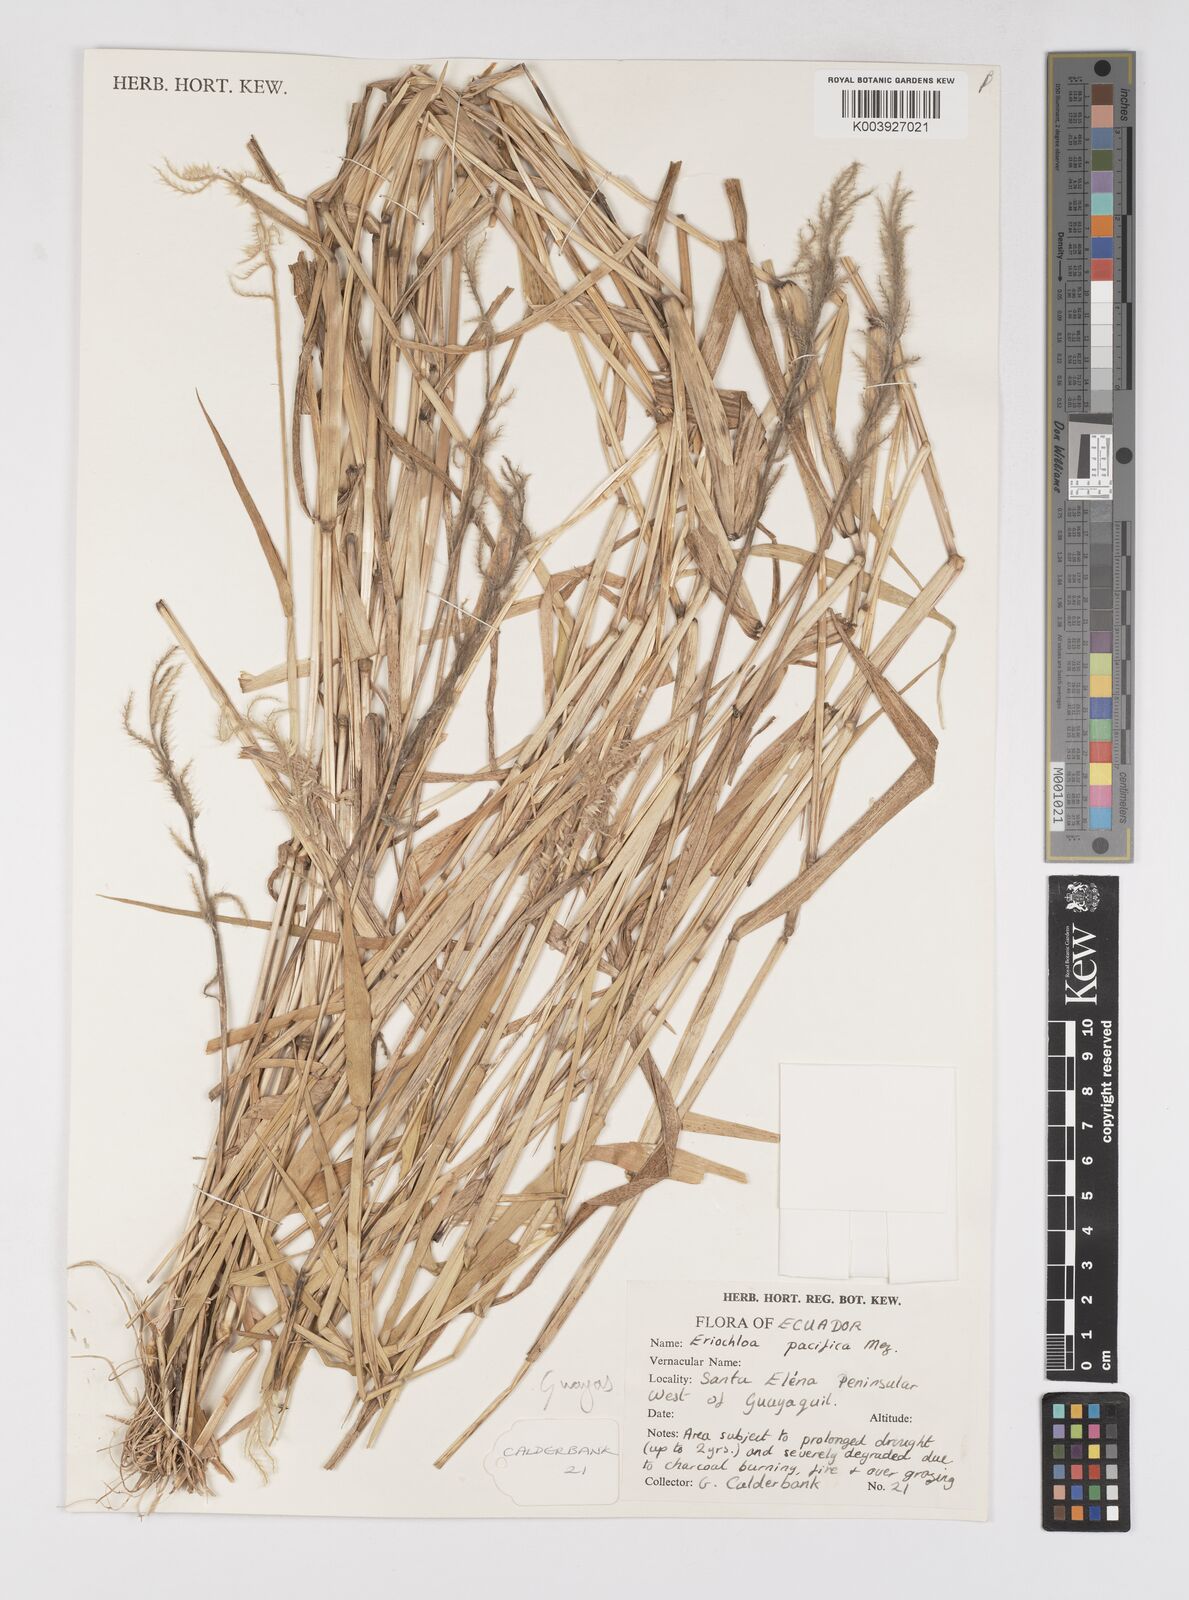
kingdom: Plantae
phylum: Tracheophyta
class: Liliopsida
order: Poales
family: Poaceae
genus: Eriochloa
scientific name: Eriochloa pacifica
